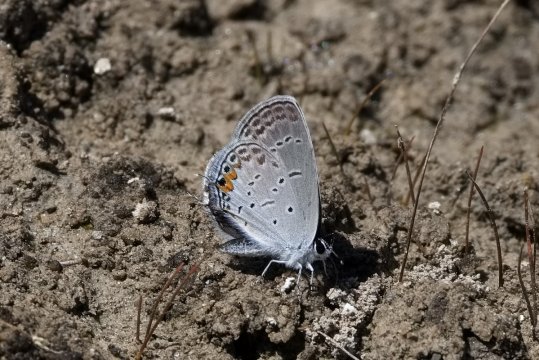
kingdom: Animalia
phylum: Arthropoda
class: Insecta
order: Lepidoptera
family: Lycaenidae
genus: Elkalyce
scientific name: Elkalyce comyntas
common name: Eastern Tailed-Blue
